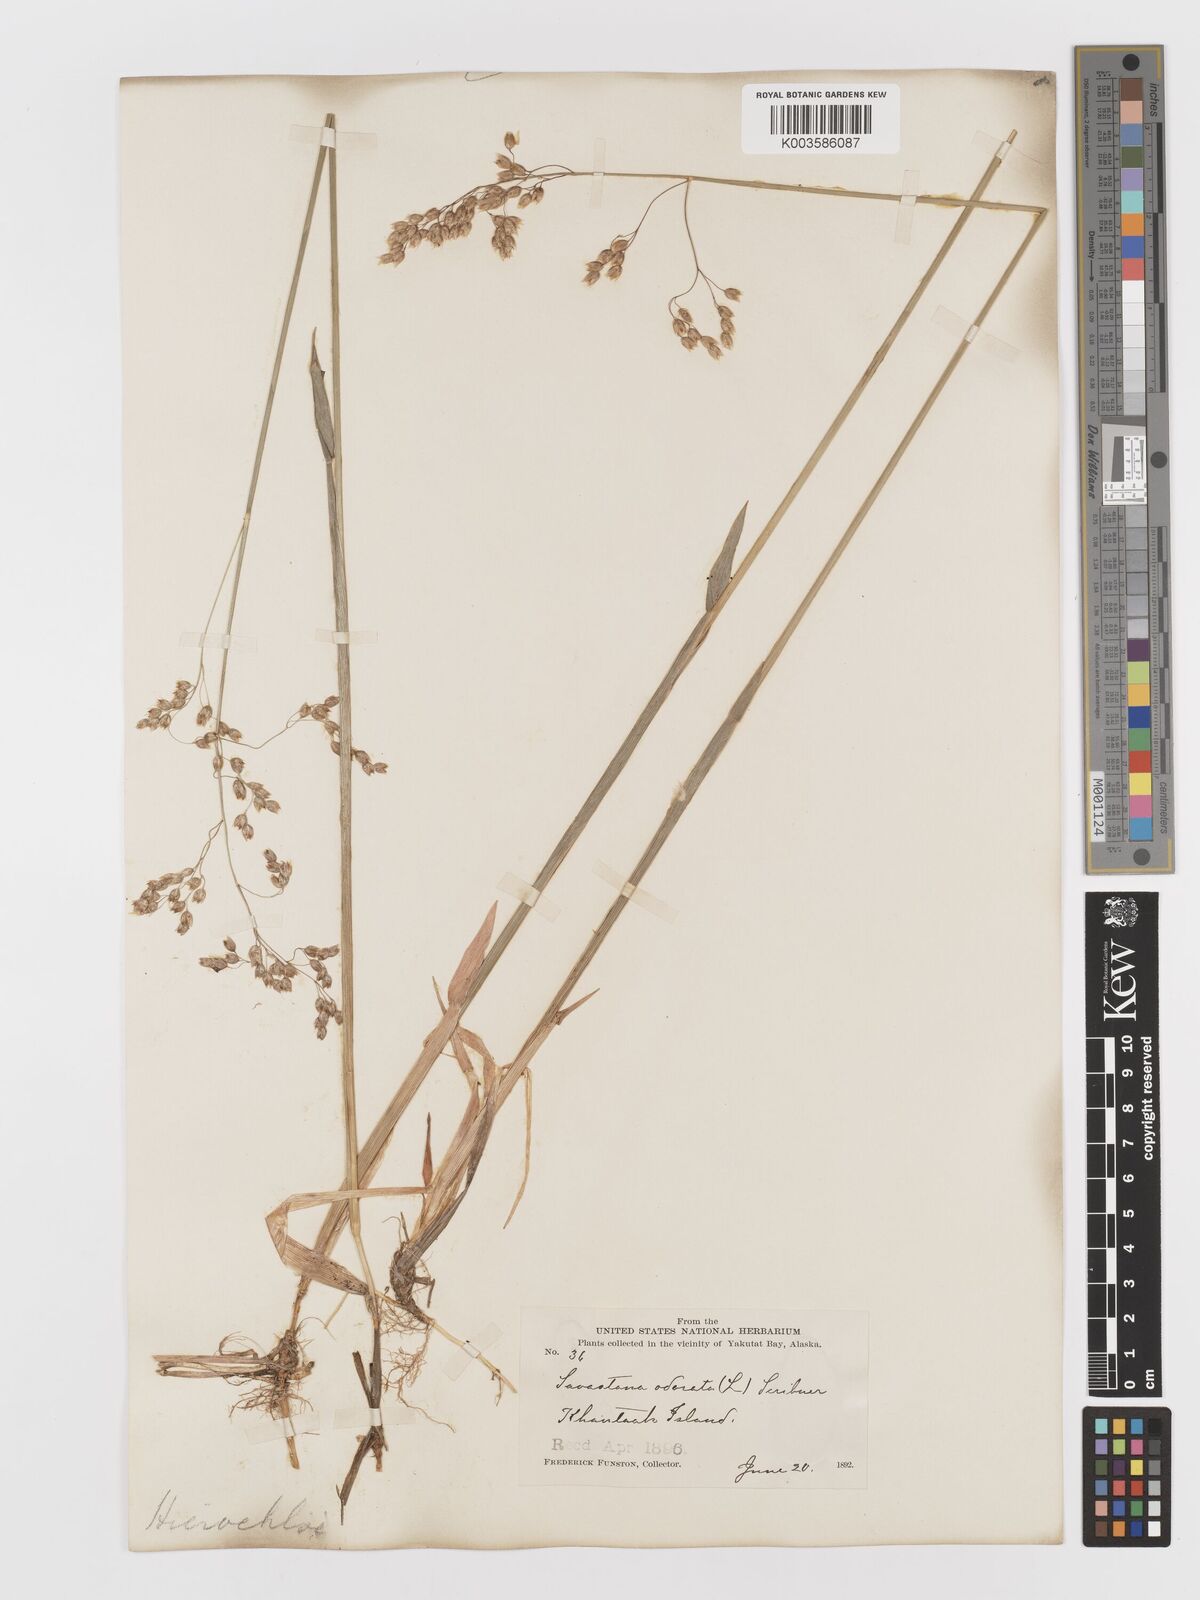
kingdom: Plantae
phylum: Tracheophyta
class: Liliopsida
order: Poales
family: Poaceae
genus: Anthoxanthum
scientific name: Anthoxanthum nitens
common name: Holy grass
